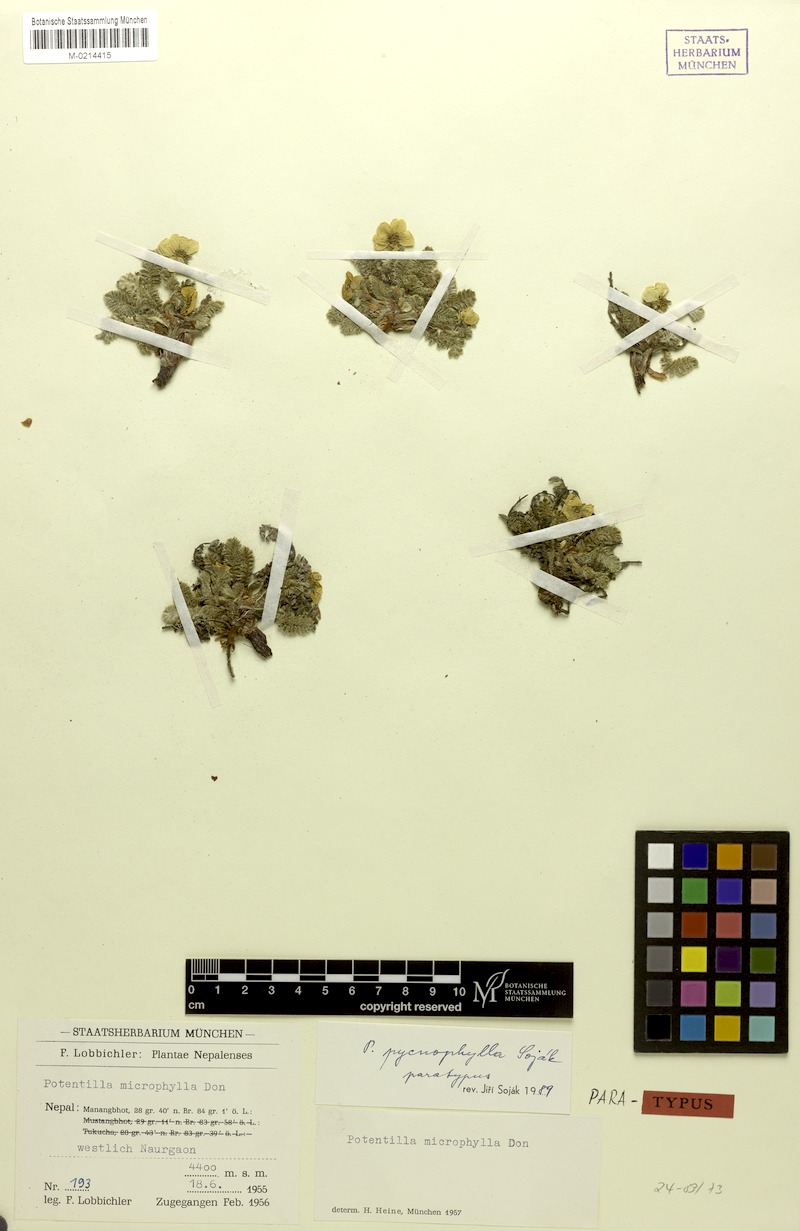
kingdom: Plantae
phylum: Tracheophyta
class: Magnoliopsida
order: Rosales
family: Rosaceae
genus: Argentina
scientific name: Argentina pycnophylla
